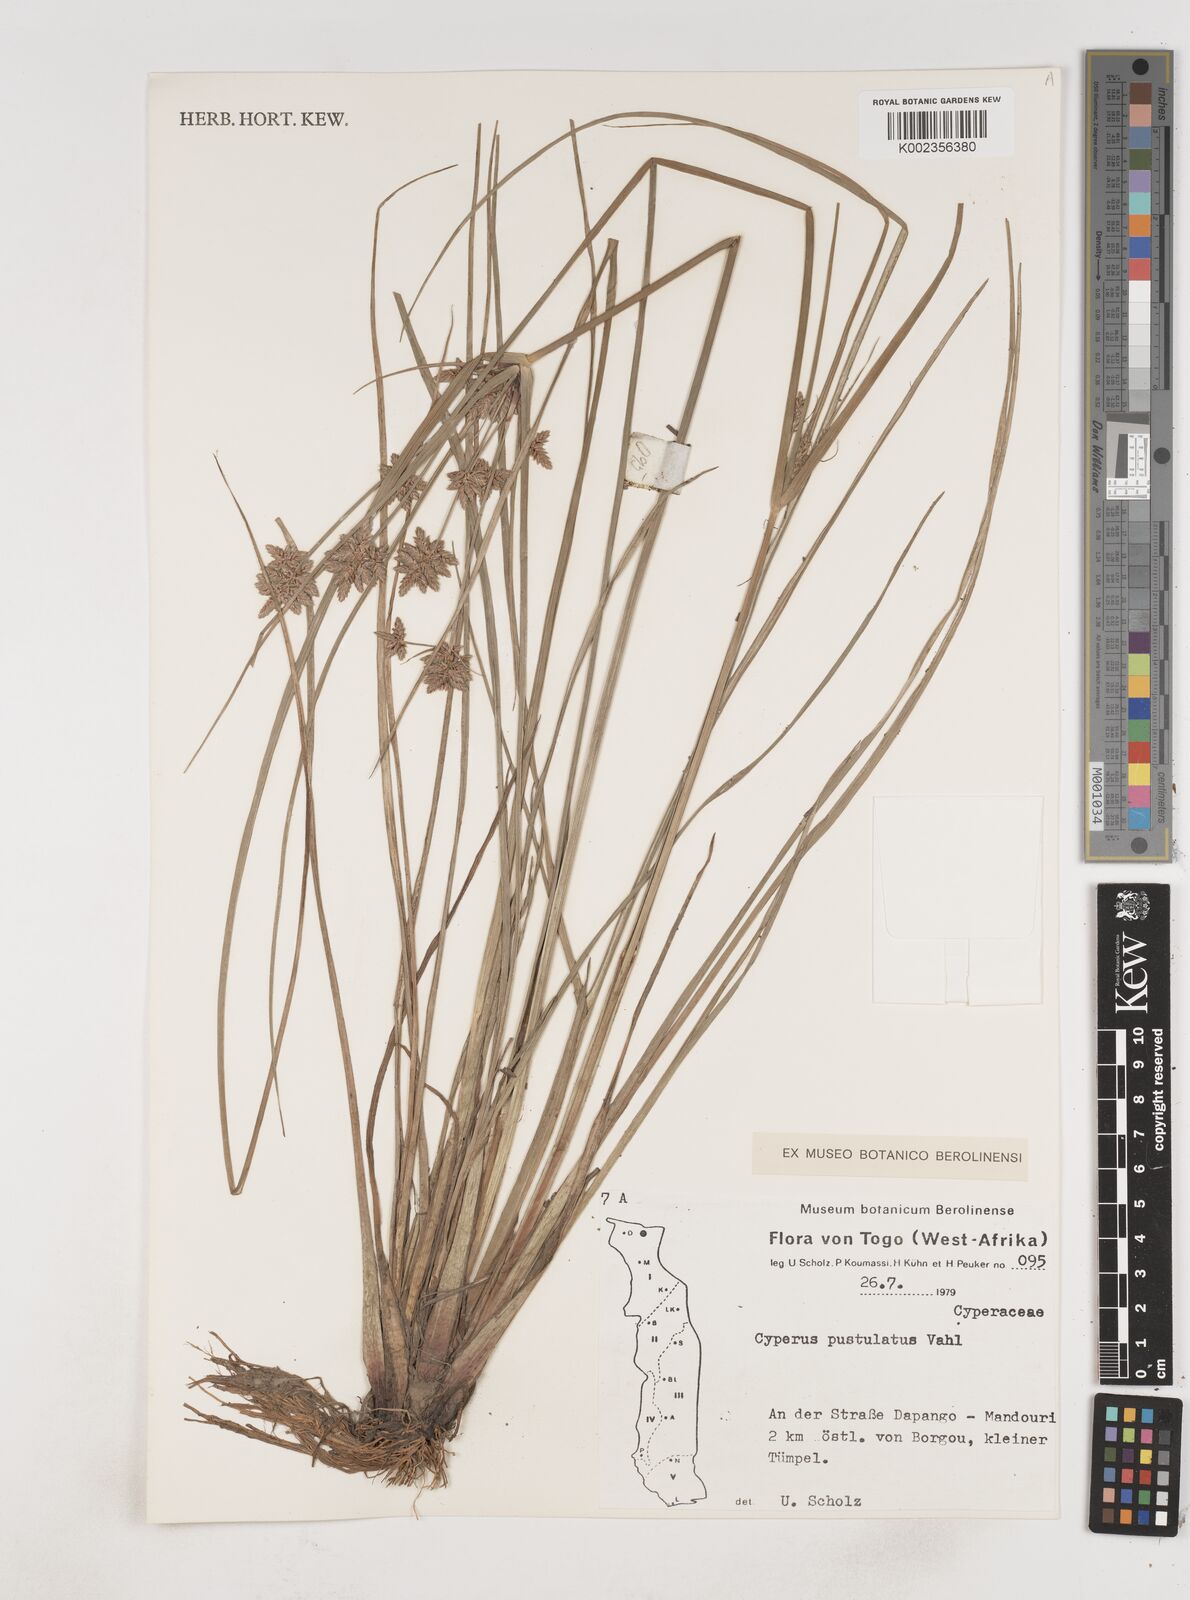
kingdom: Plantae
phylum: Tracheophyta
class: Liliopsida
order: Poales
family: Cyperaceae
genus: Cyperus
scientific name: Cyperus pustulatus
